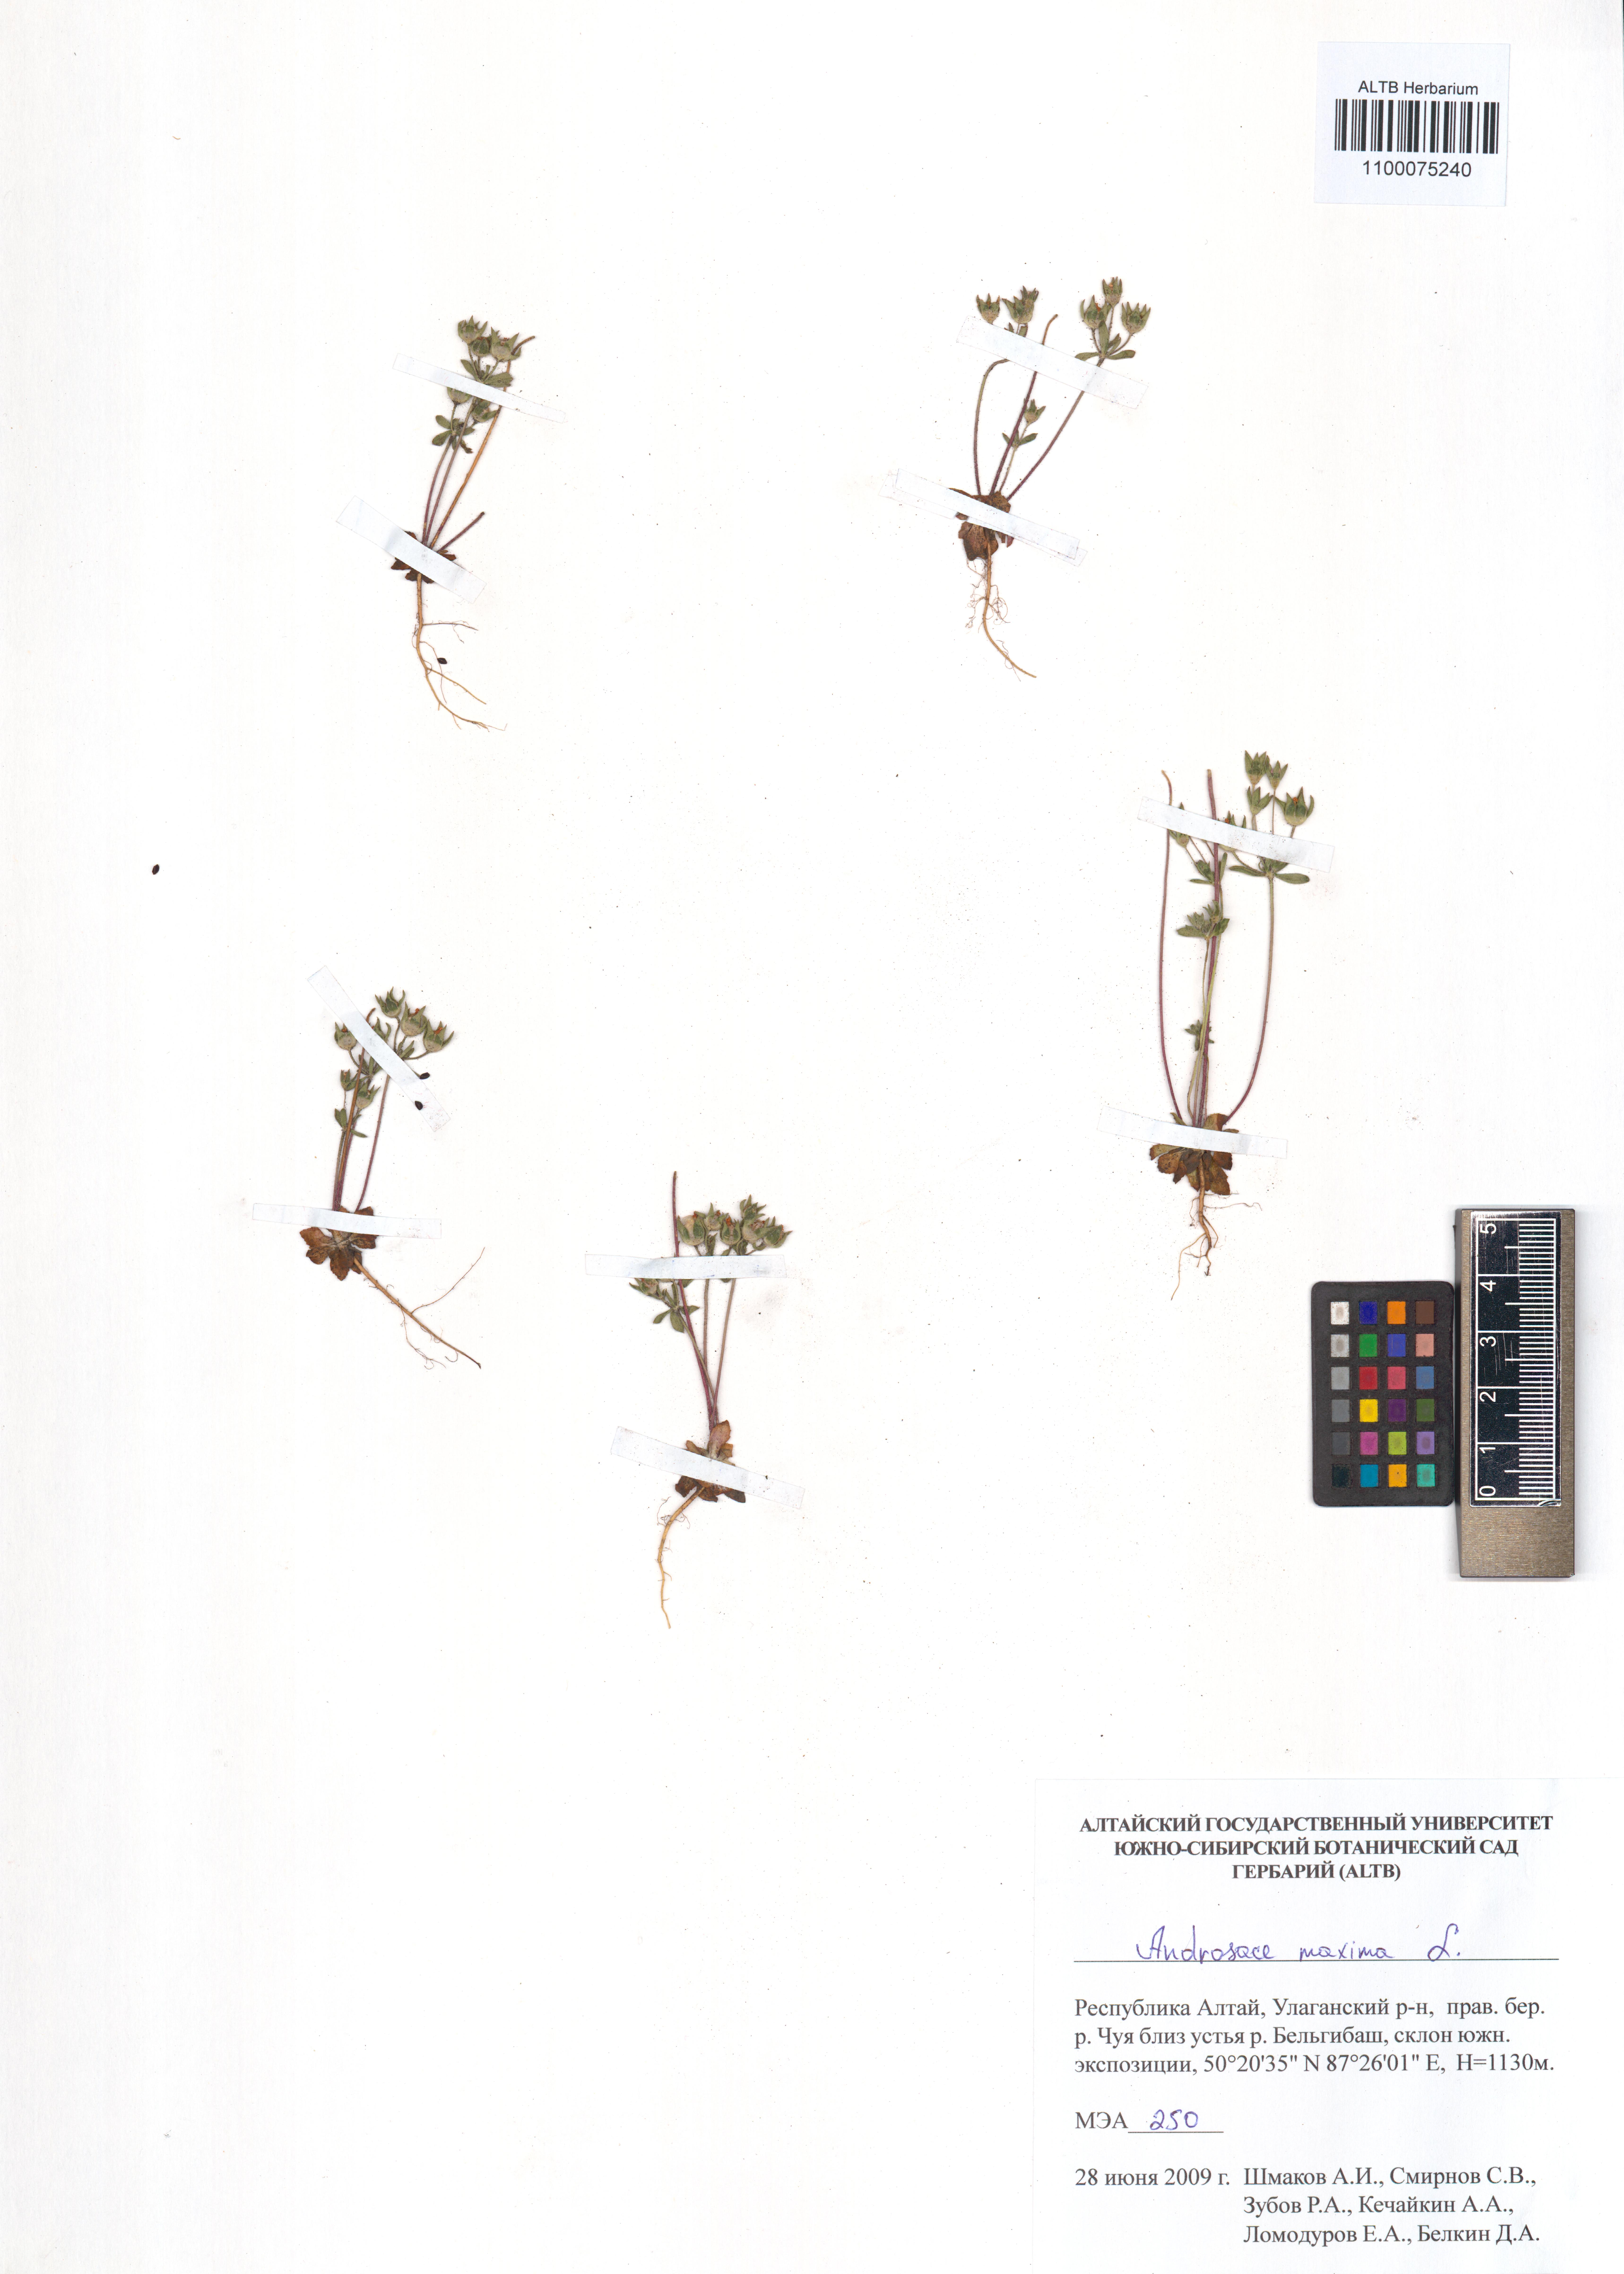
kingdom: Plantae
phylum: Tracheophyta
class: Magnoliopsida
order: Ericales
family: Primulaceae
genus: Androsace
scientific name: Androsace maxima
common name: Annual androsace
